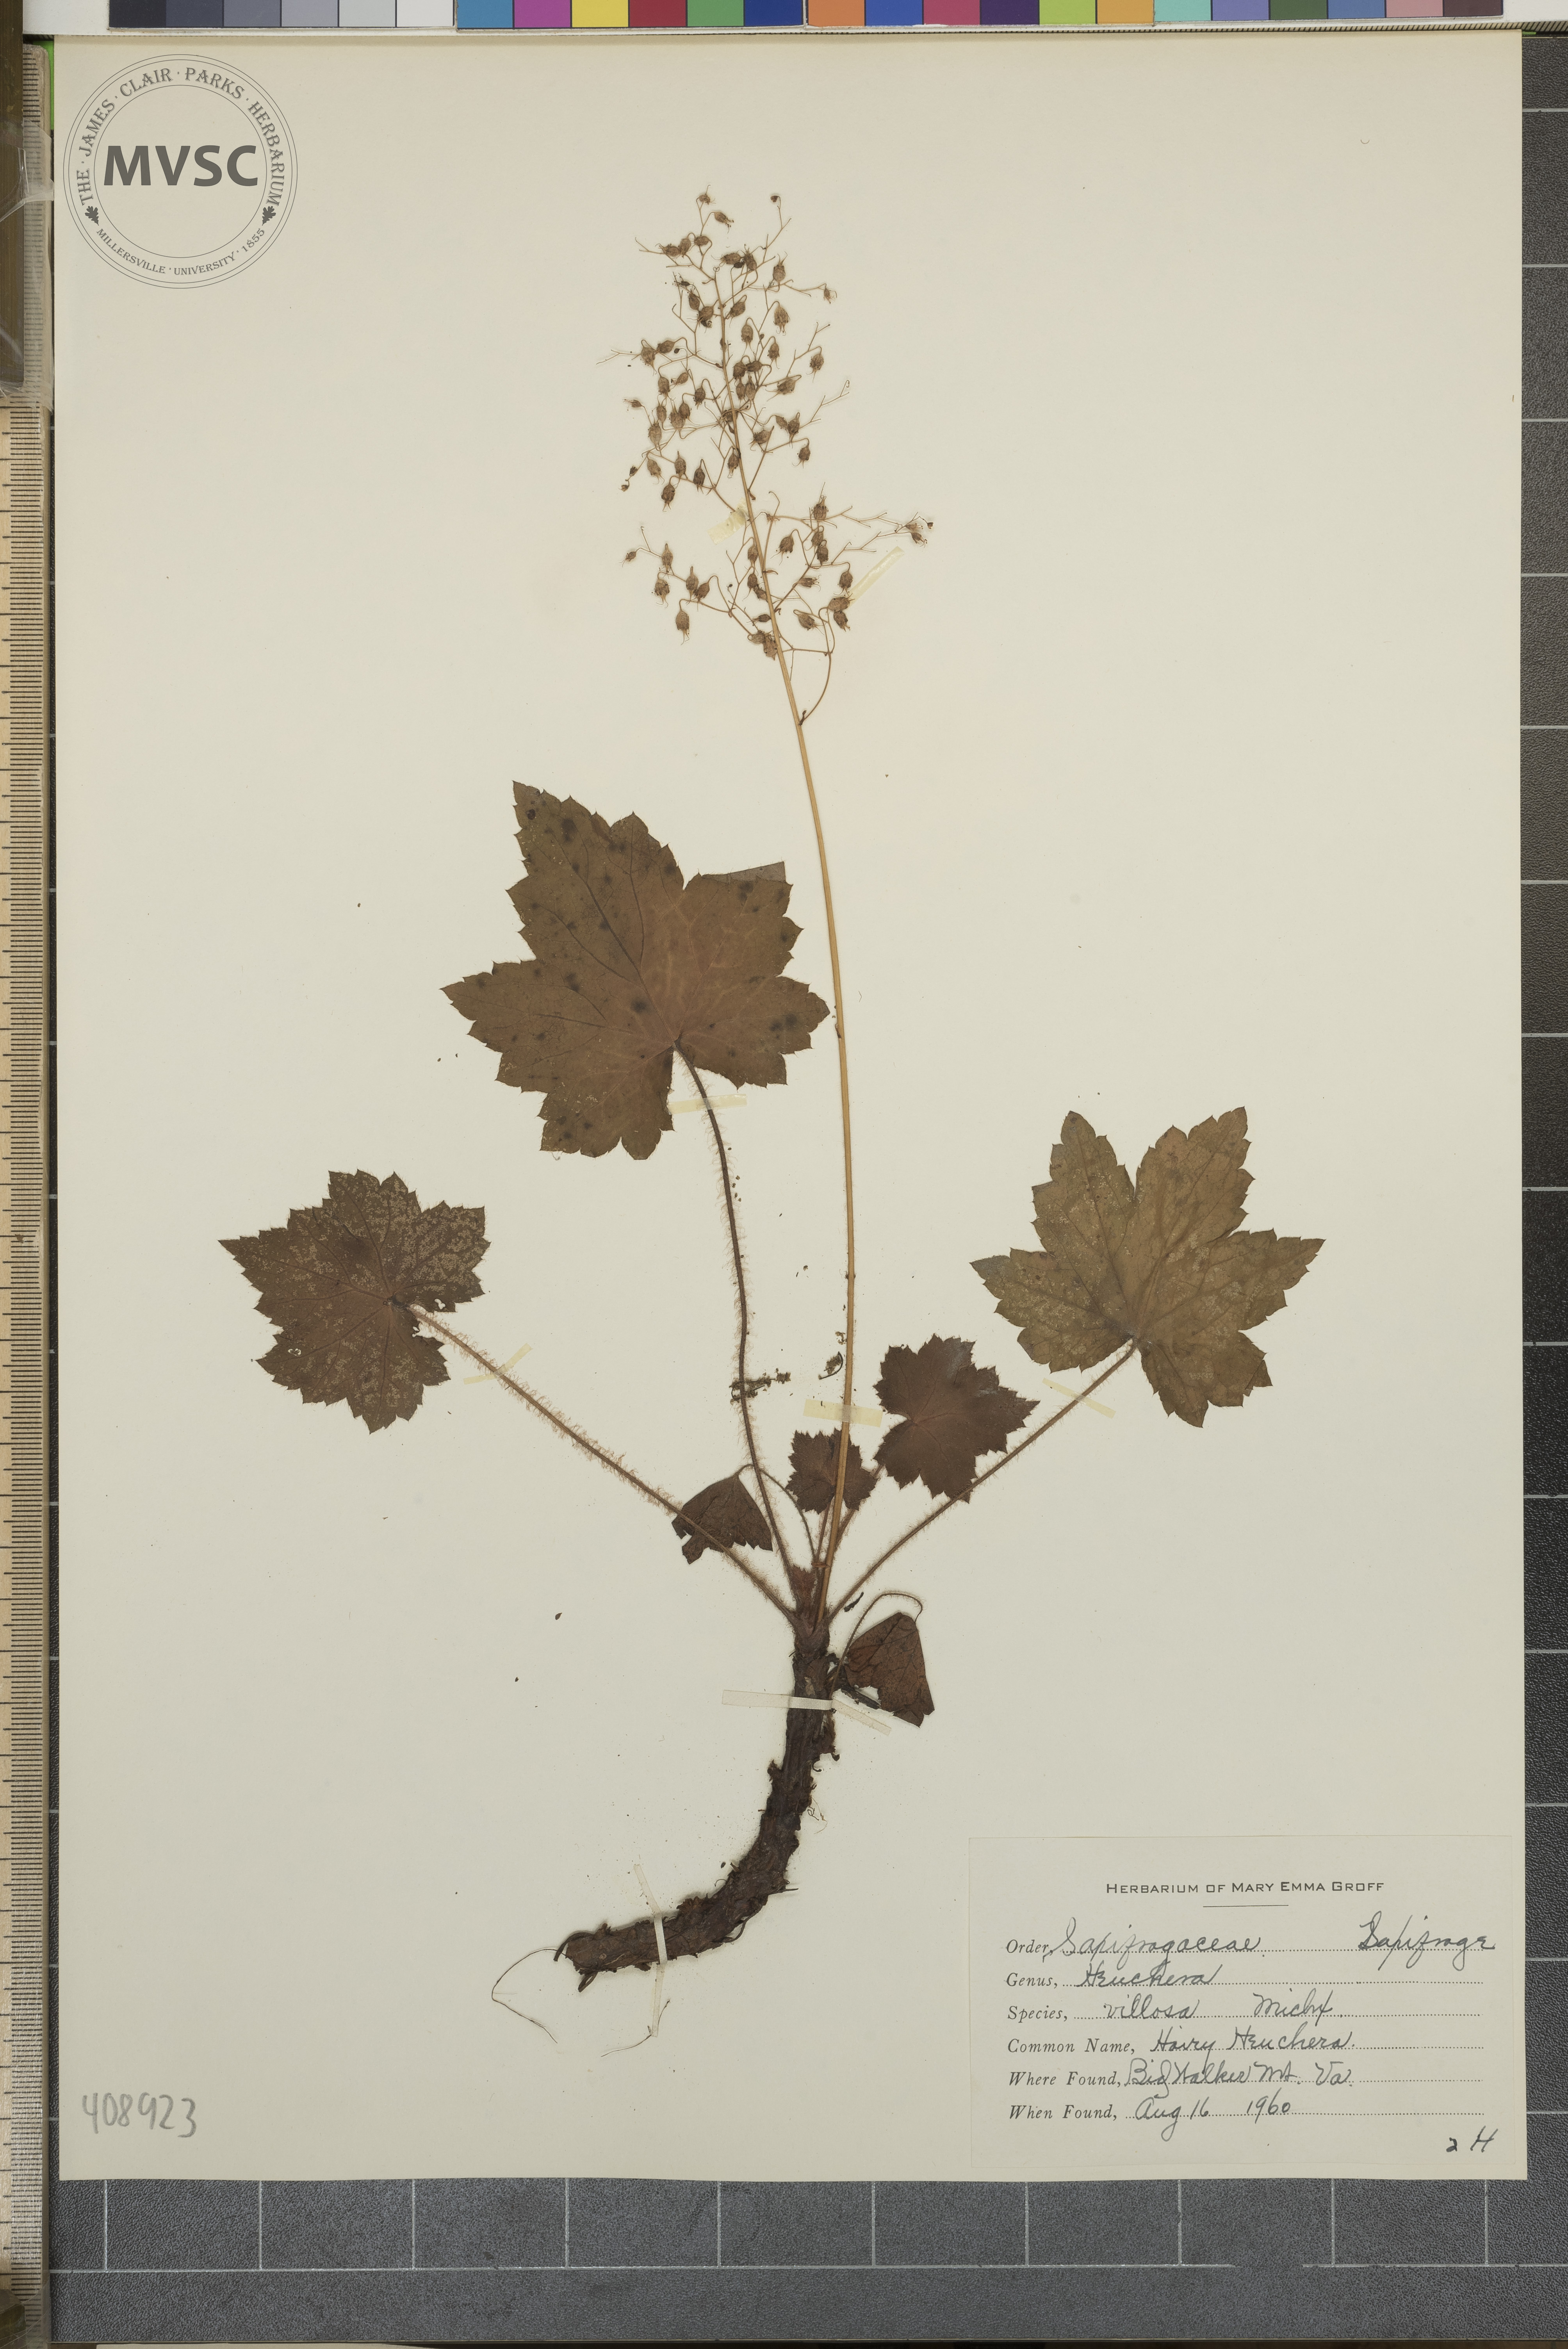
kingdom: Plantae
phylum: Tracheophyta
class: Magnoliopsida
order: Saxifragales
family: Saxifragaceae
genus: Heuchera
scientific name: Heuchera villosa
